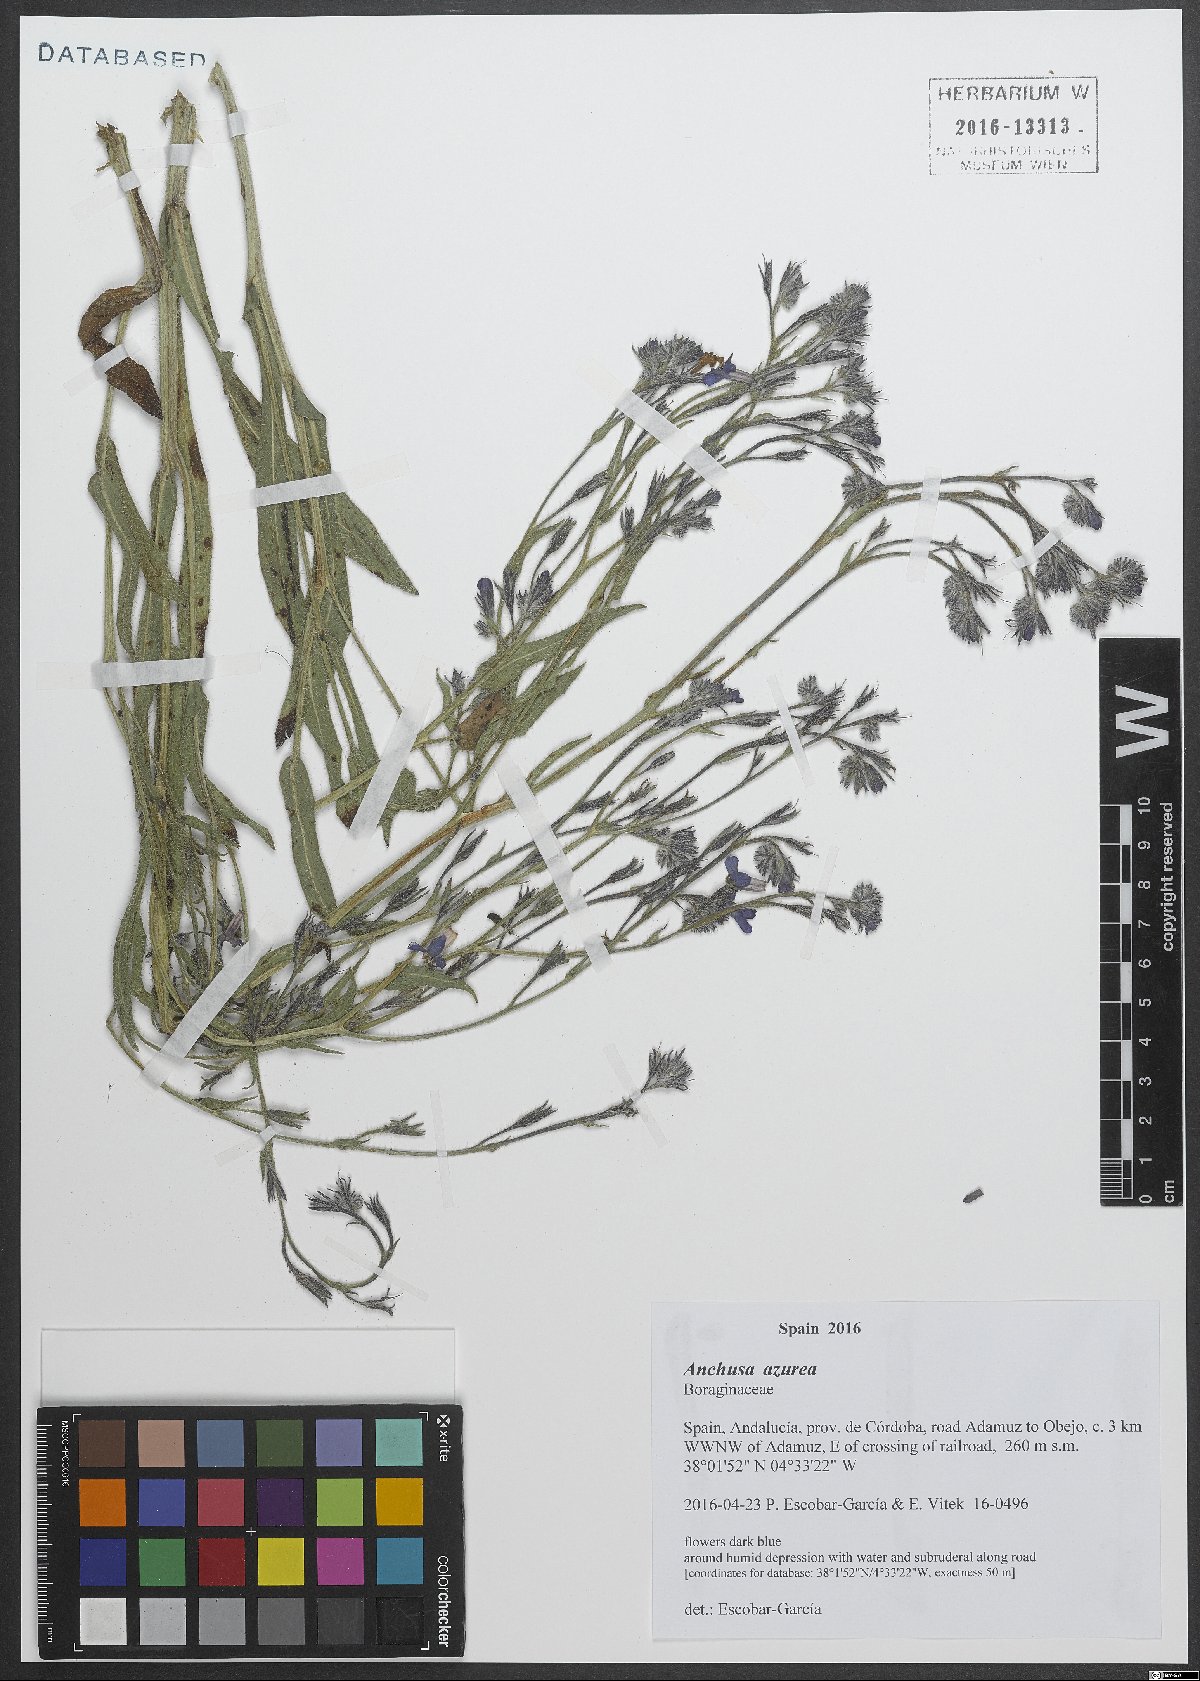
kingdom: Plantae
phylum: Tracheophyta
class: Magnoliopsida
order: Boraginales
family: Boraginaceae
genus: Anchusa
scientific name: Anchusa azurea
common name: Garden anchusa
